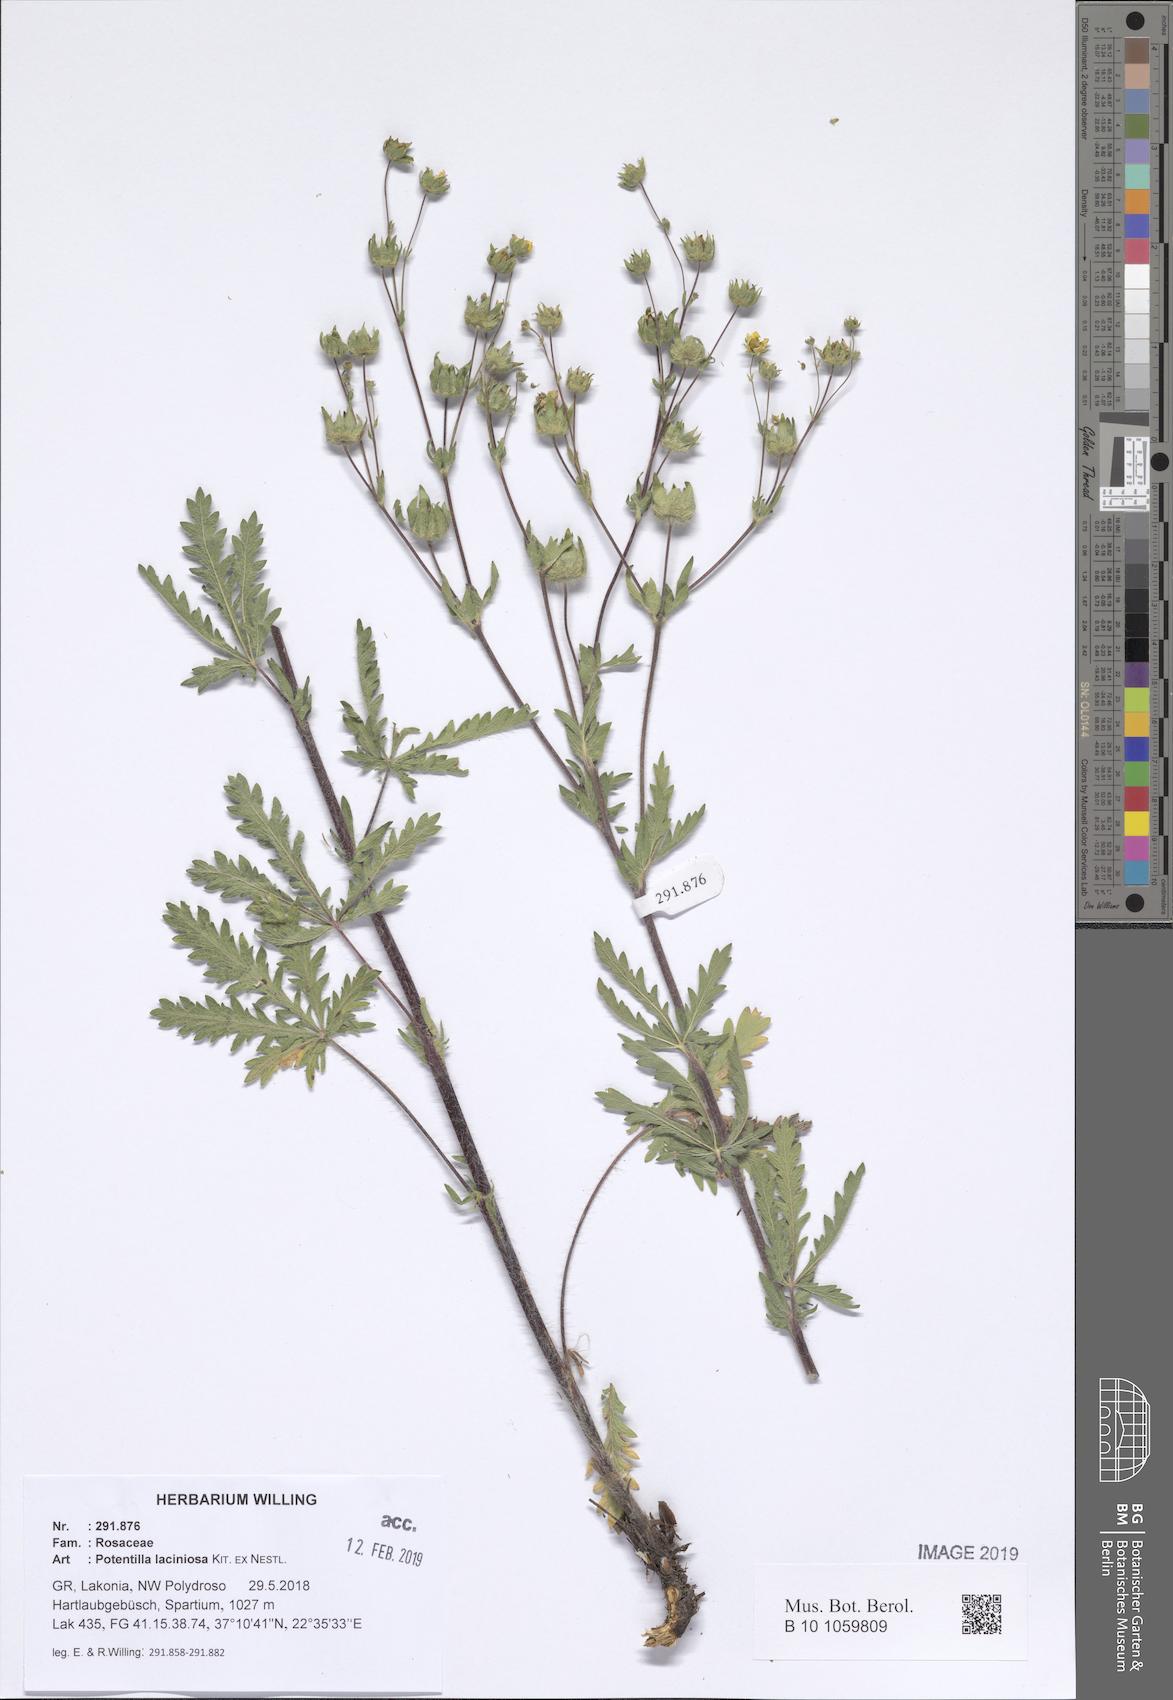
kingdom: Plantae
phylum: Tracheophyta
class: Magnoliopsida
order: Rosales
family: Rosaceae
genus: Potentilla
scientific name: Potentilla recta
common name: Sulphur cinquefoil
